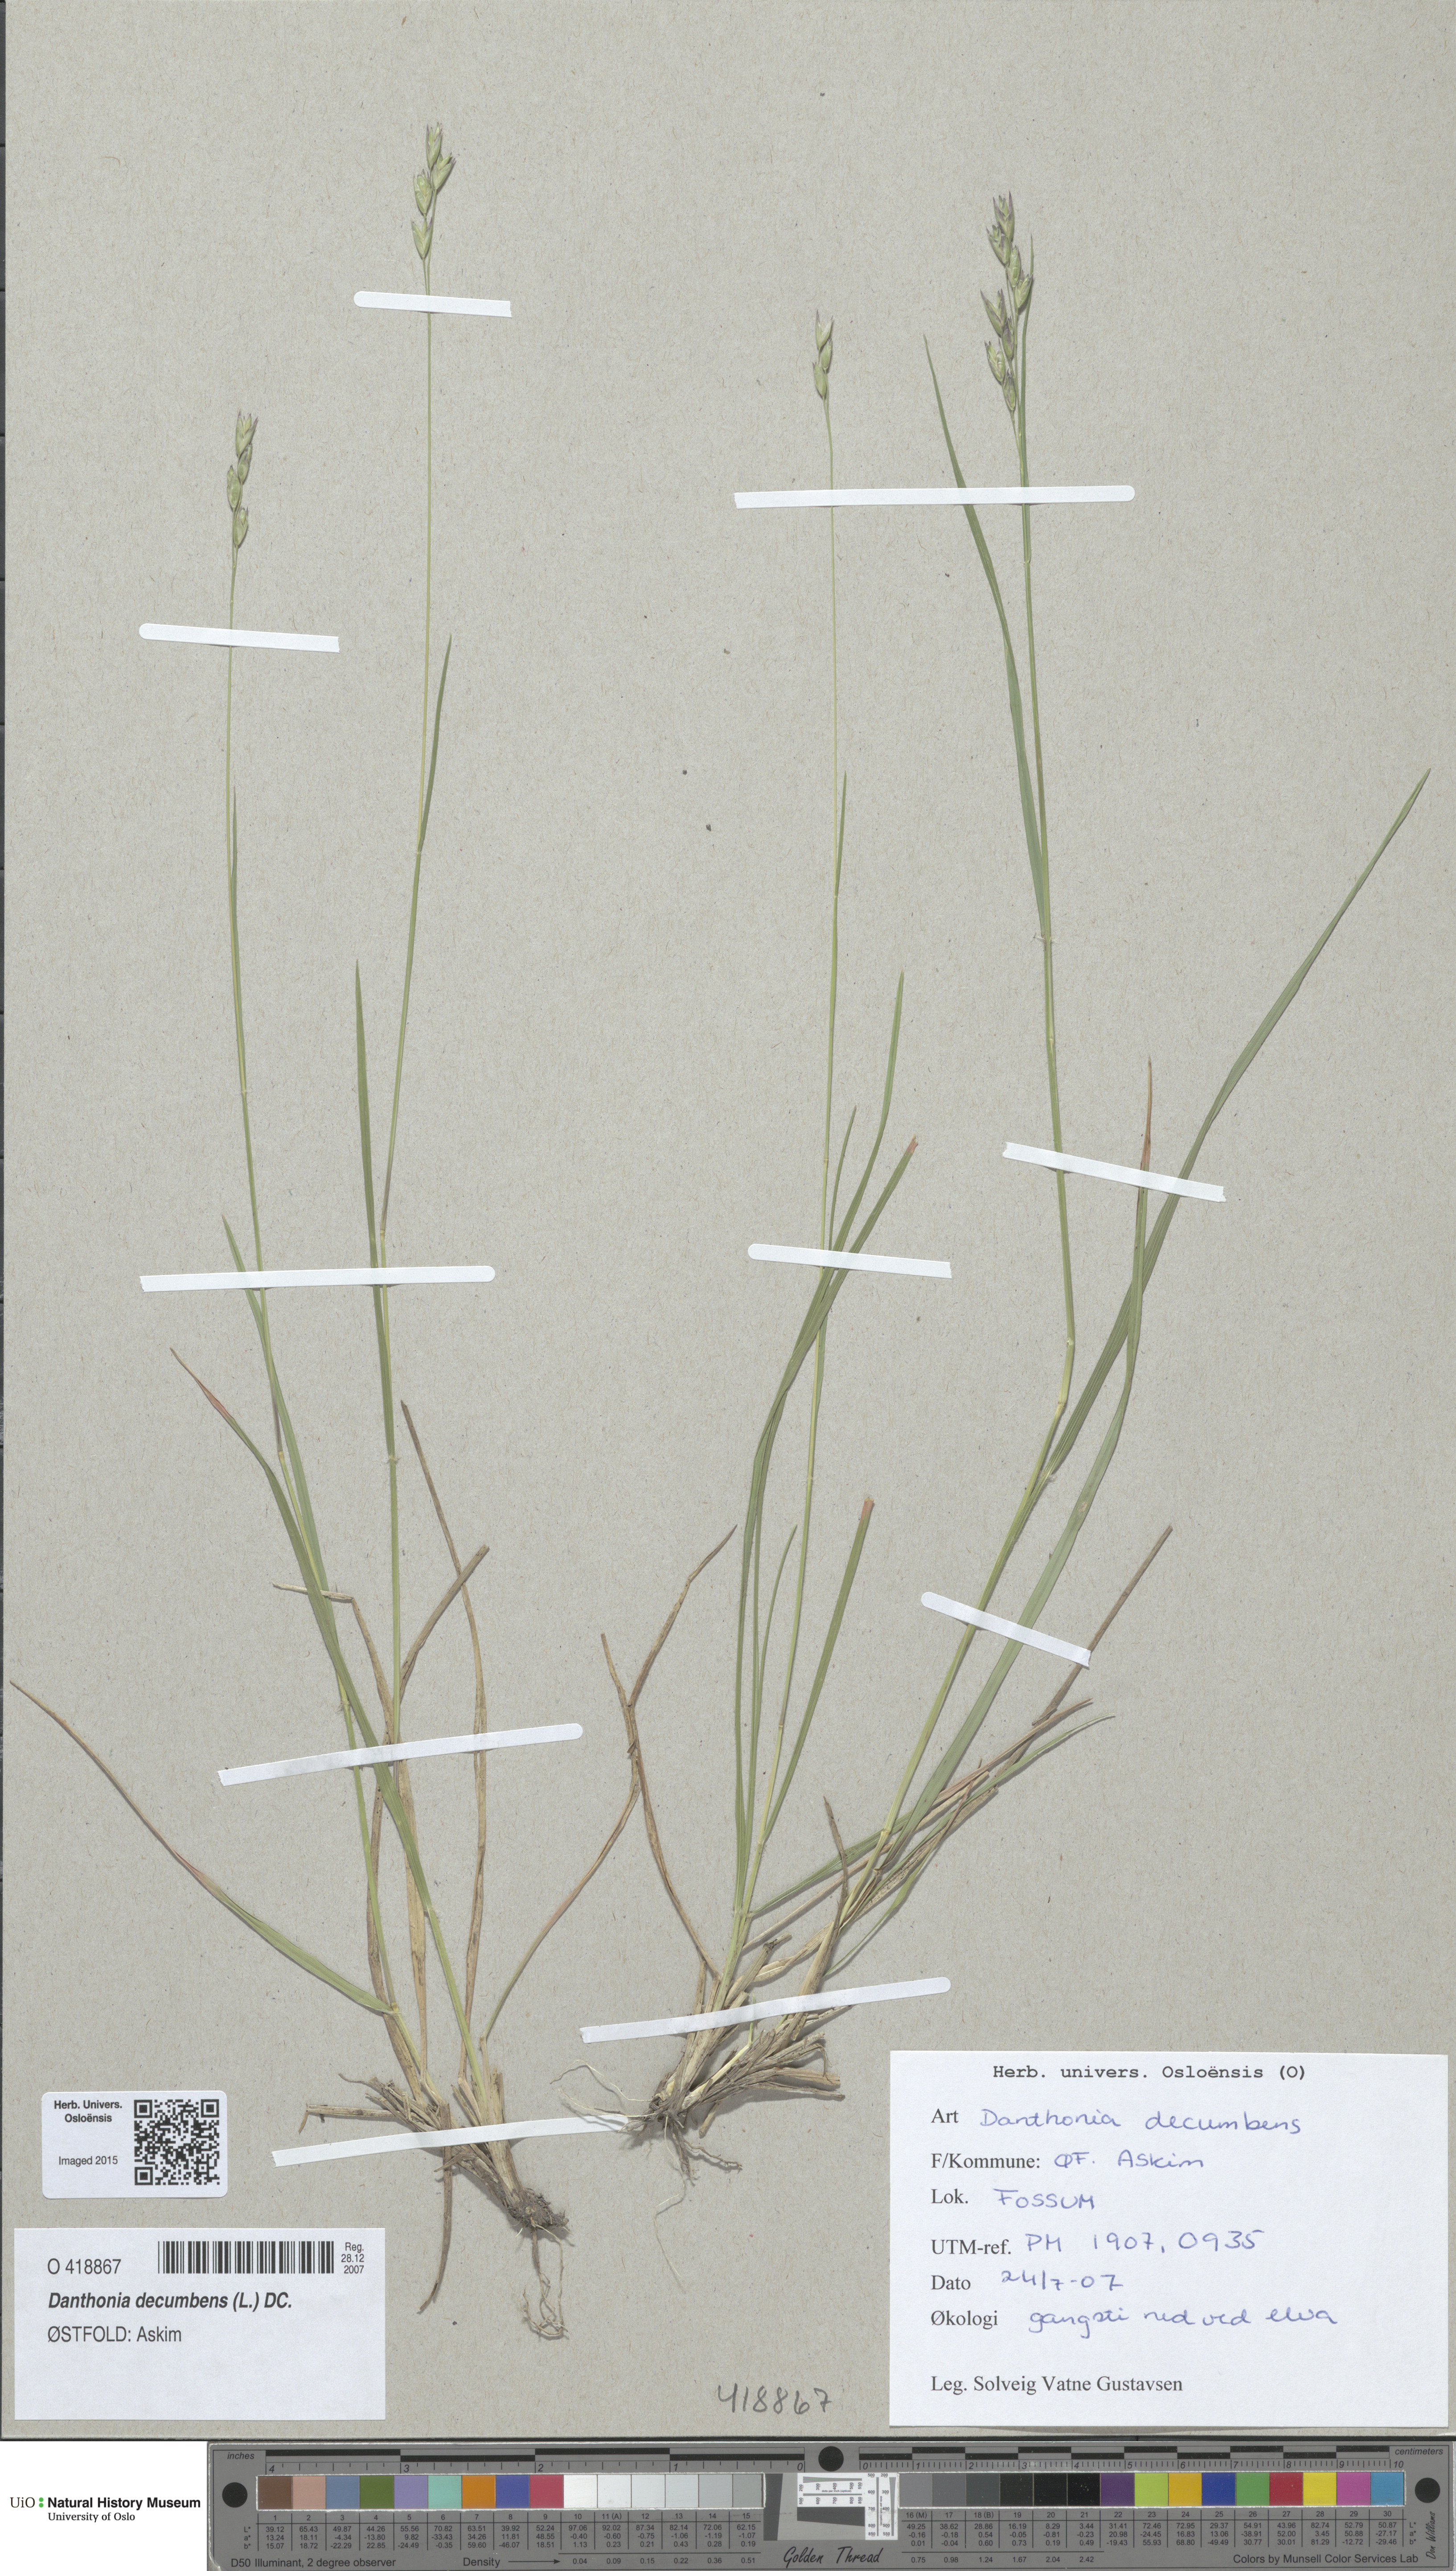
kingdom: Plantae
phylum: Tracheophyta
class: Liliopsida
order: Poales
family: Poaceae
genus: Danthonia
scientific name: Danthonia decumbens
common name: Common heathgrass
